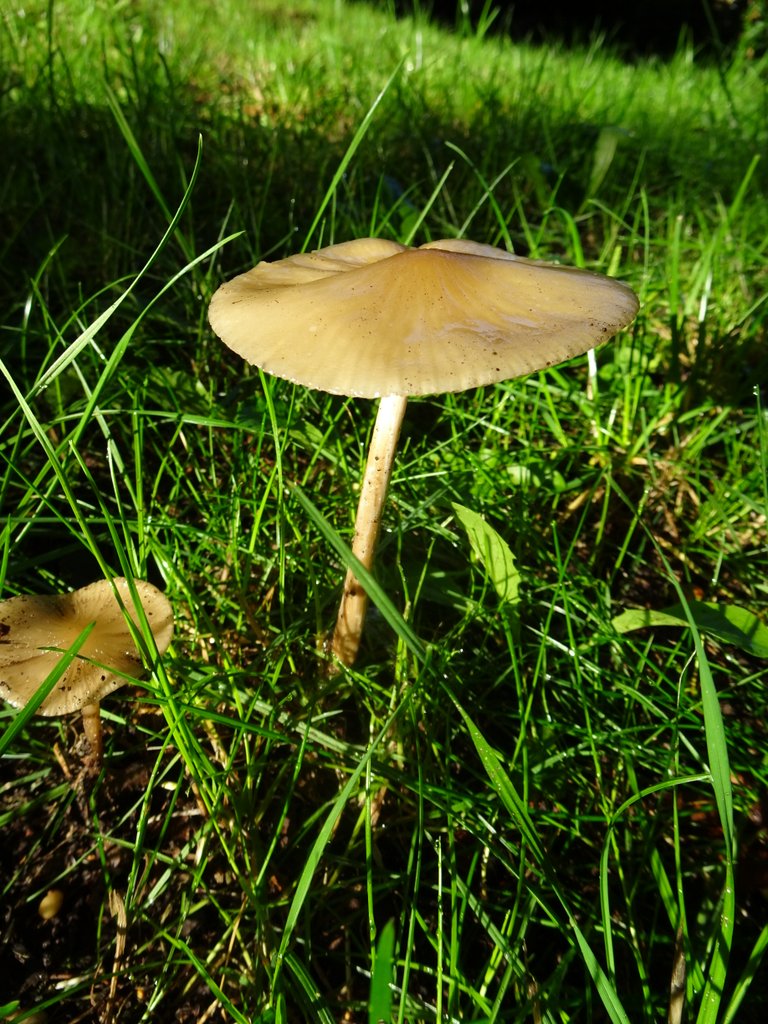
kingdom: Fungi
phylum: Basidiomycota
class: Agaricomycetes
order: Agaricales
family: Physalacriaceae
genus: Hymenopellis
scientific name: Hymenopellis radicata
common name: almindelig pælerodshat
